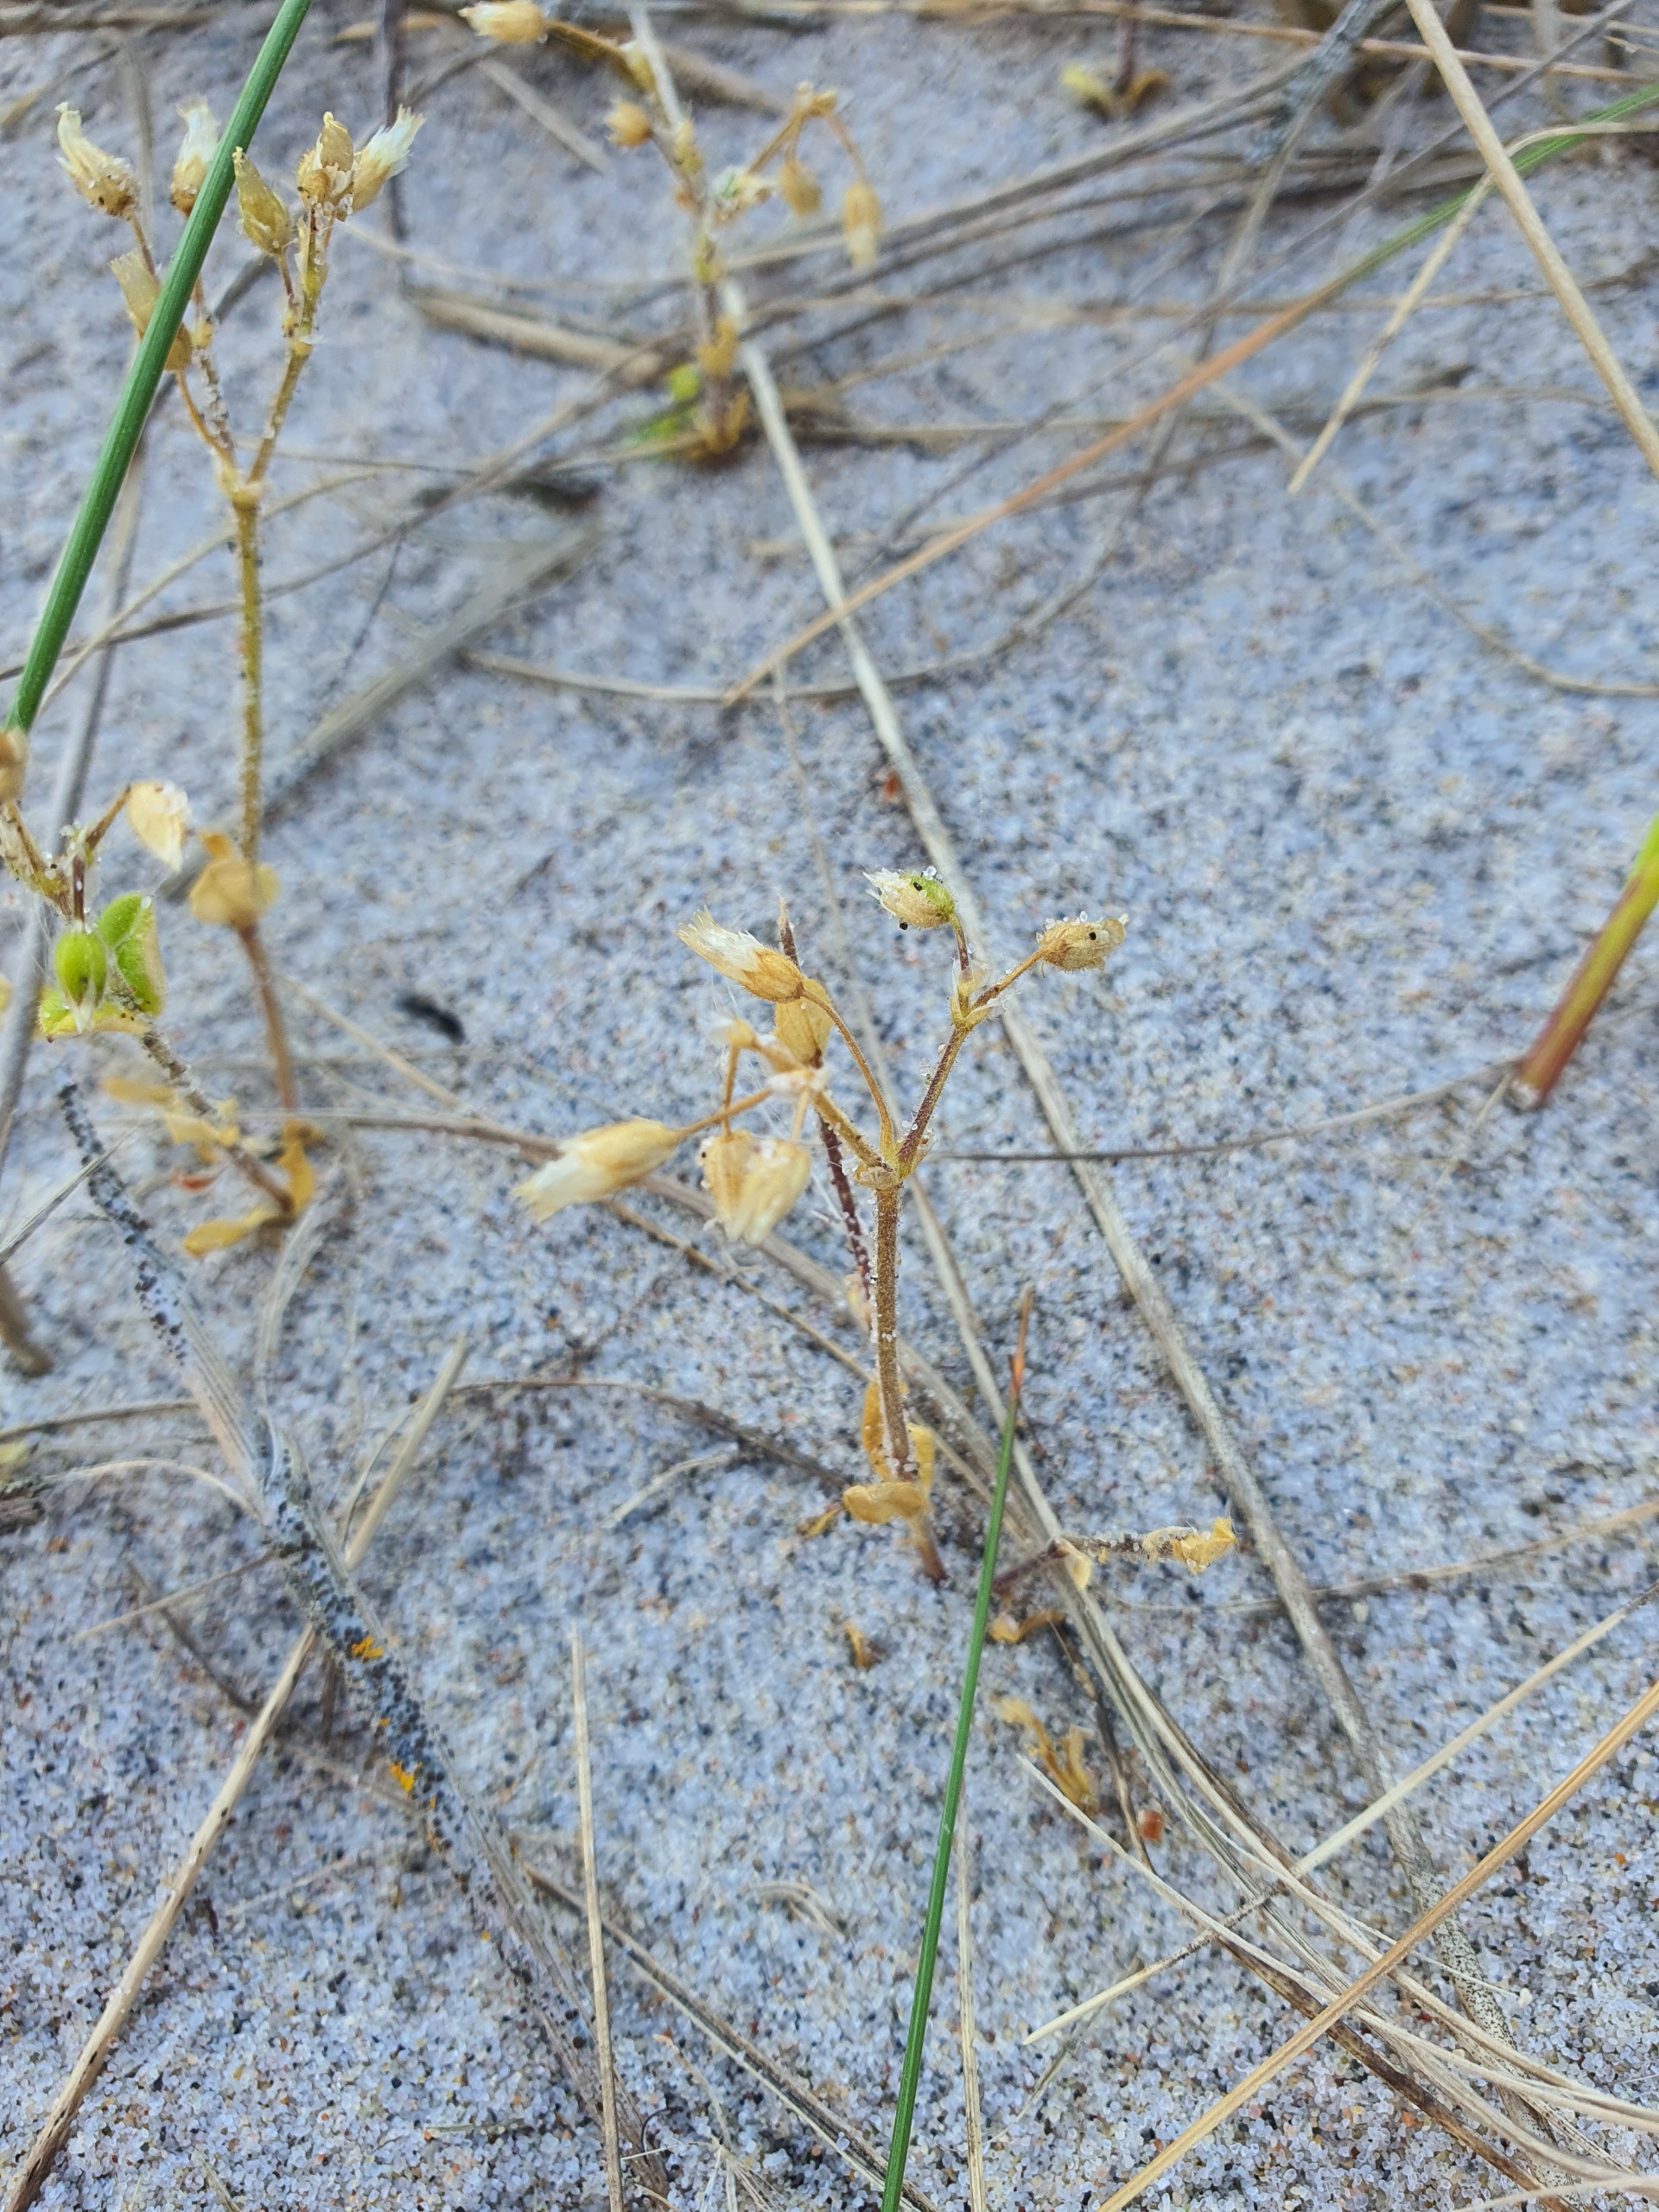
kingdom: Plantae
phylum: Tracheophyta
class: Magnoliopsida
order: Caryophyllales
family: Caryophyllaceae
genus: Cerastium
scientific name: Cerastium semidecandrum
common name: Femhannet hønsetarm
